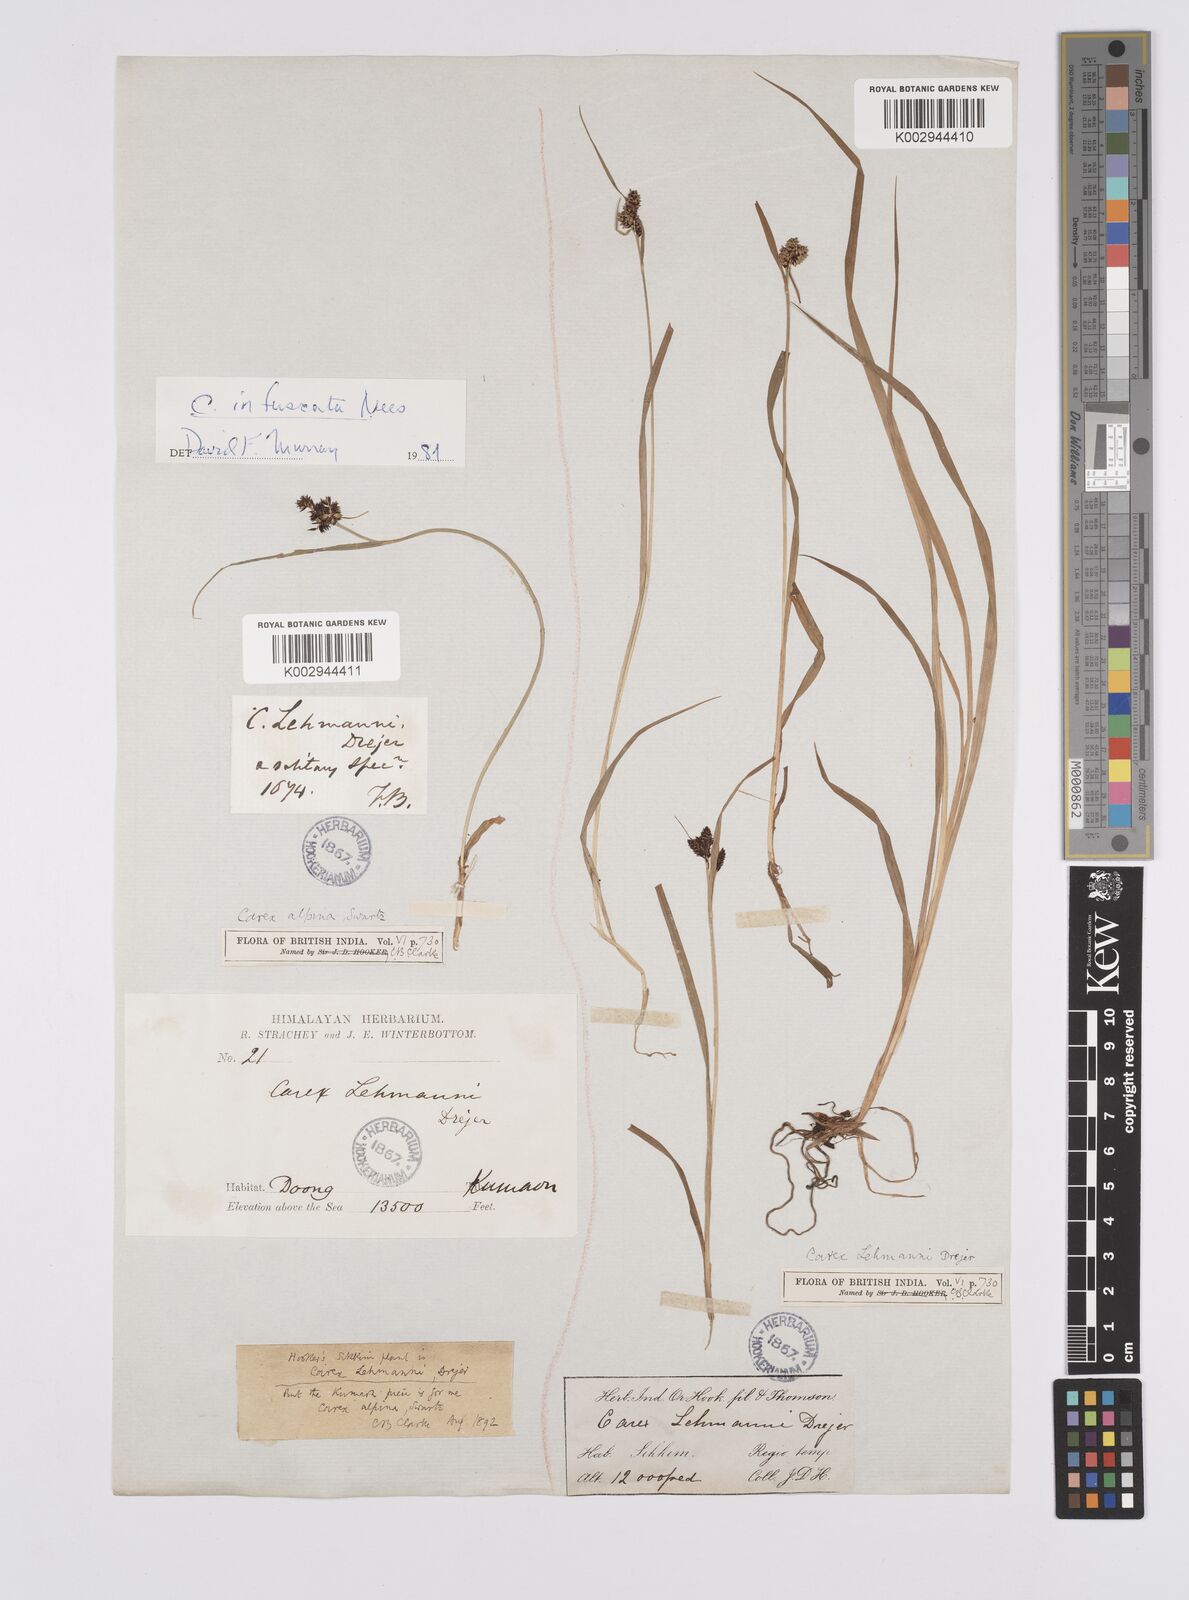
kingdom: Plantae
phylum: Tracheophyta
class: Liliopsida
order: Poales
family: Cyperaceae
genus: Carex
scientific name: Carex lehmannii
